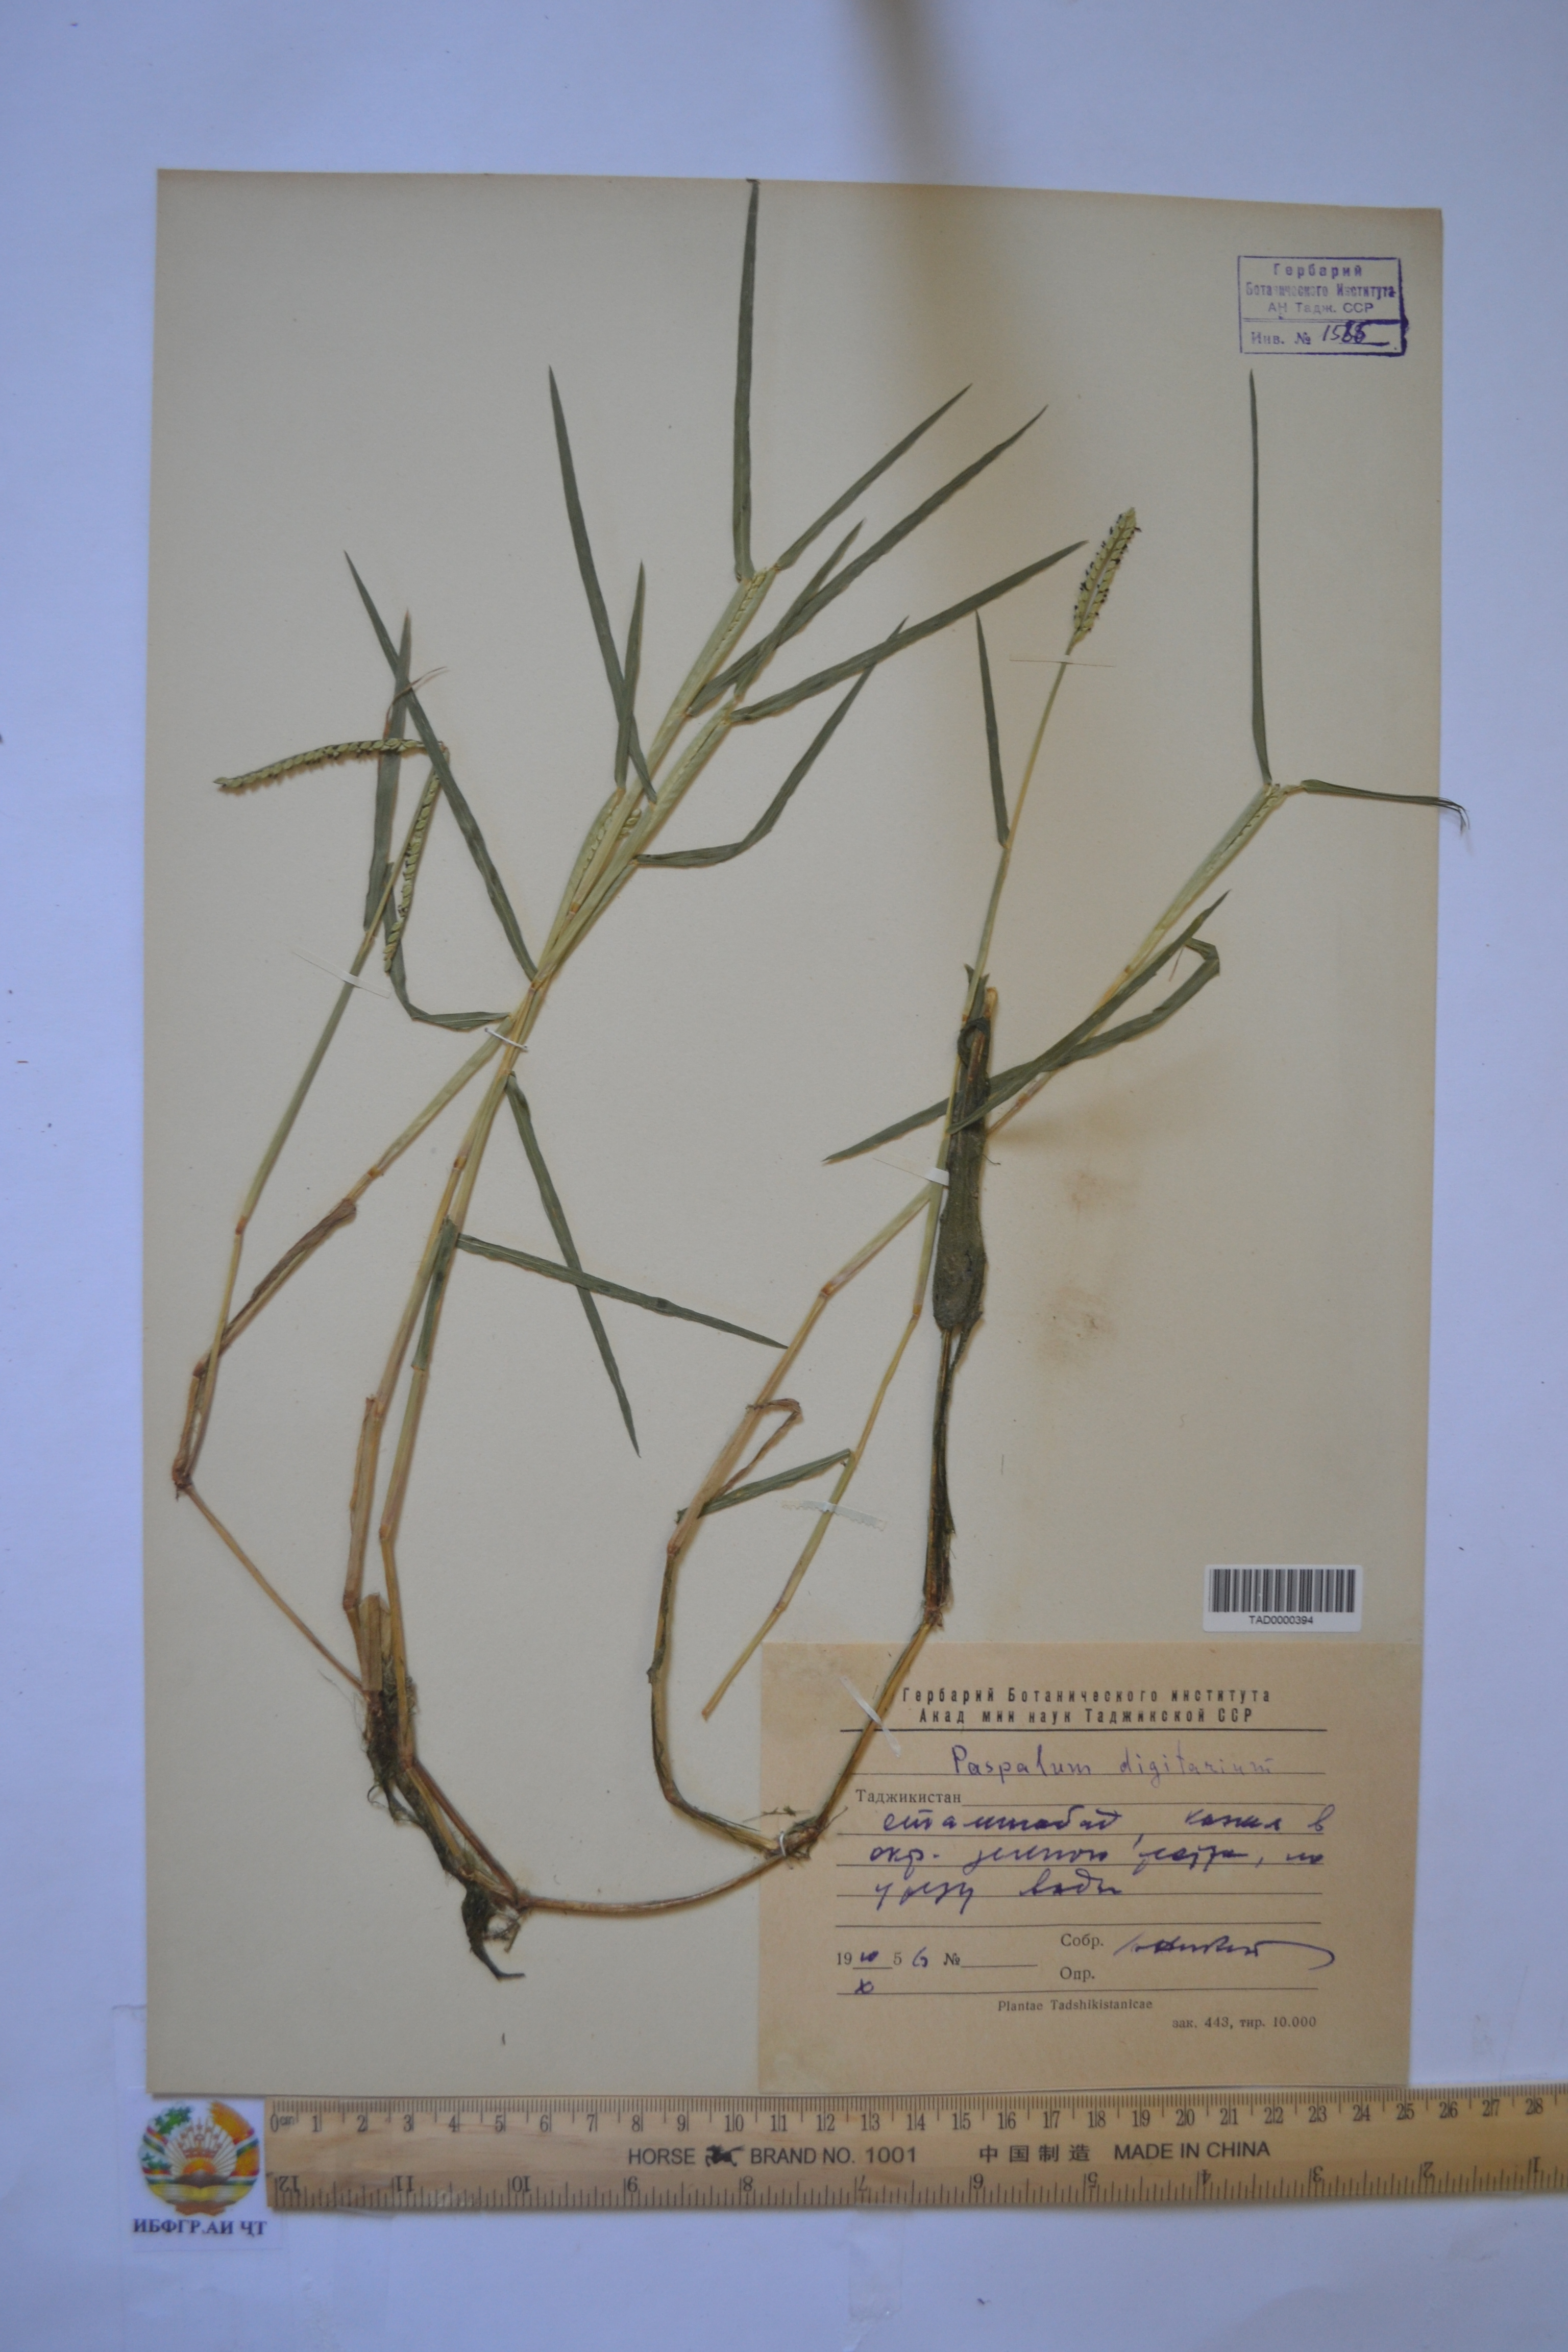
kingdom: Plantae
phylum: Tracheophyta
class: Liliopsida
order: Poales
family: Poaceae
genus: Paspalum
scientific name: Paspalum distichum
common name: Knotgrass
